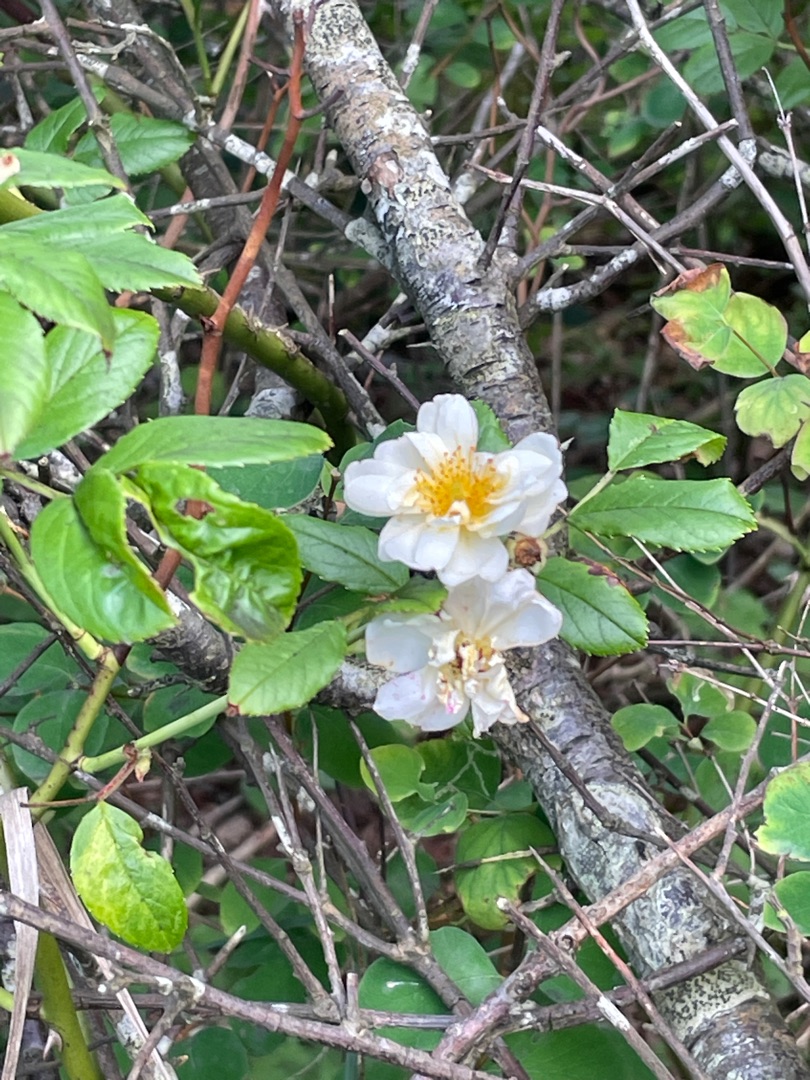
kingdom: Plantae
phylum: Tracheophyta
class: Magnoliopsida
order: Rosales
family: Rosaceae
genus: Rosa
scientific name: Rosa multiflora
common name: Mangeblomstret rose
